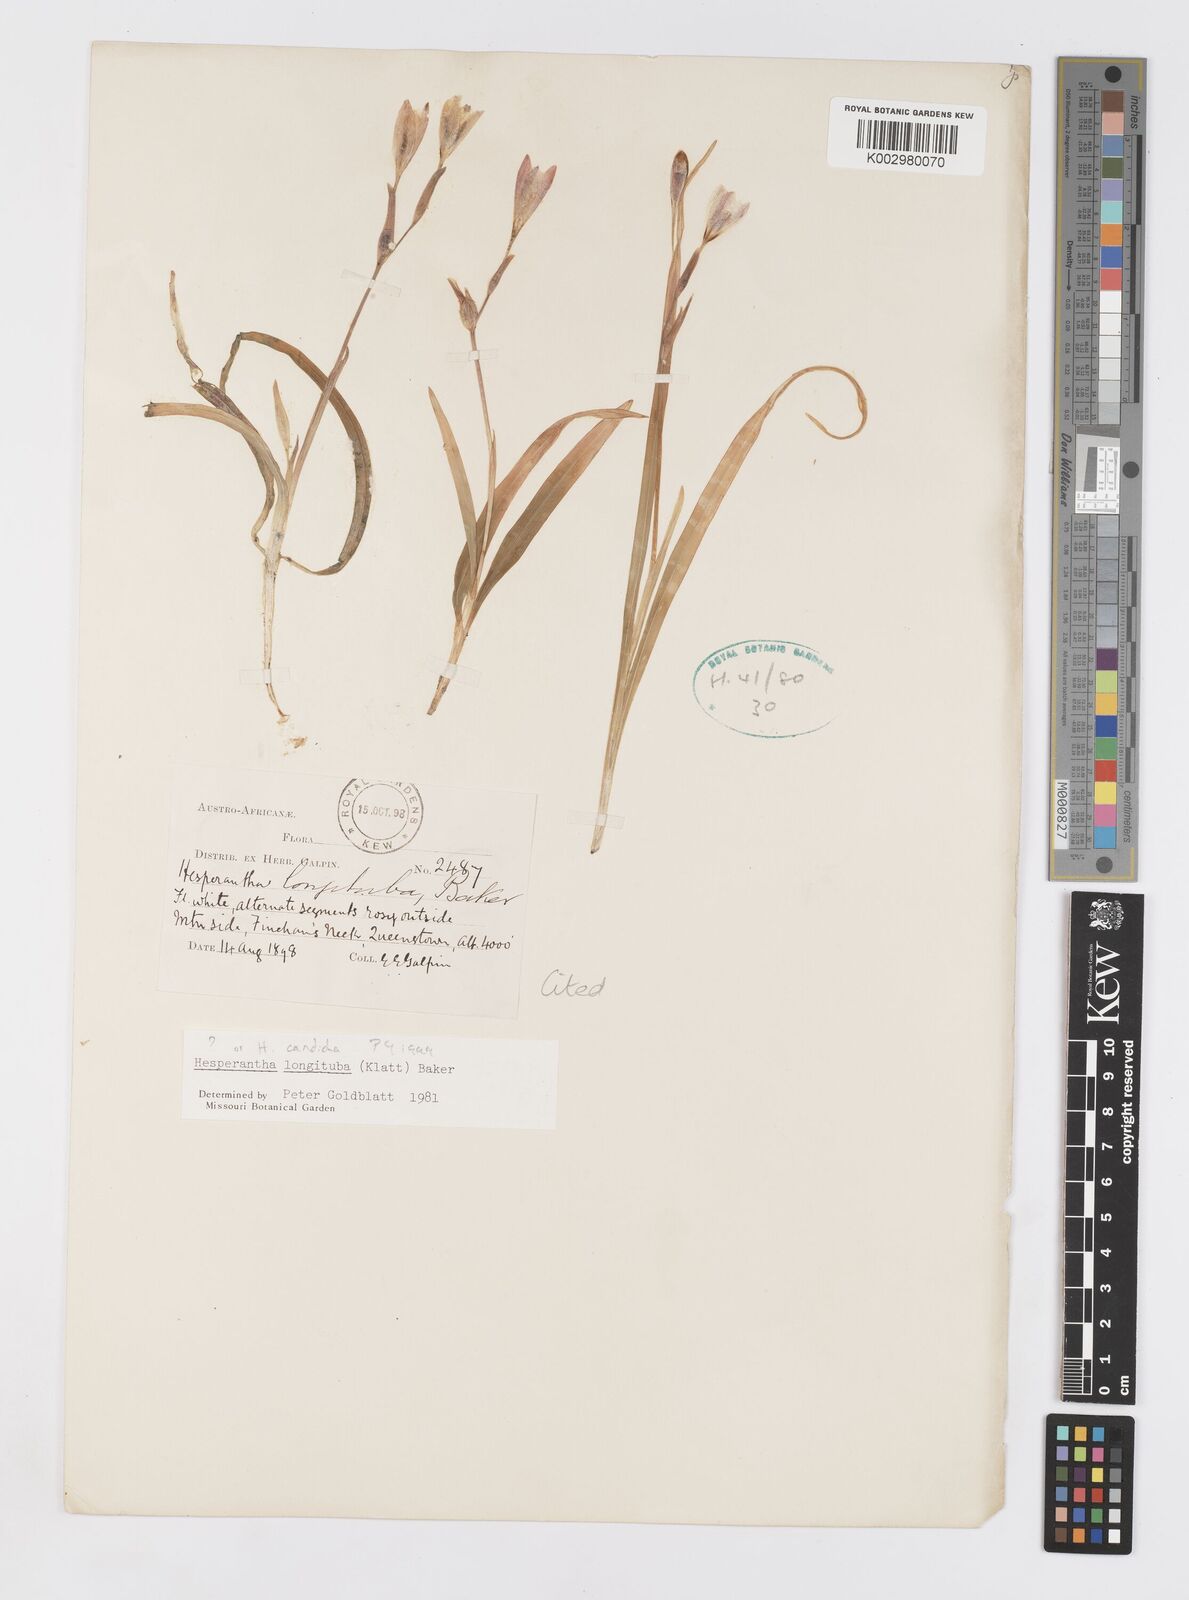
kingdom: Plantae
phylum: Tracheophyta
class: Liliopsida
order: Asparagales
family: Iridaceae
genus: Hesperantha
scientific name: Hesperantha candida
